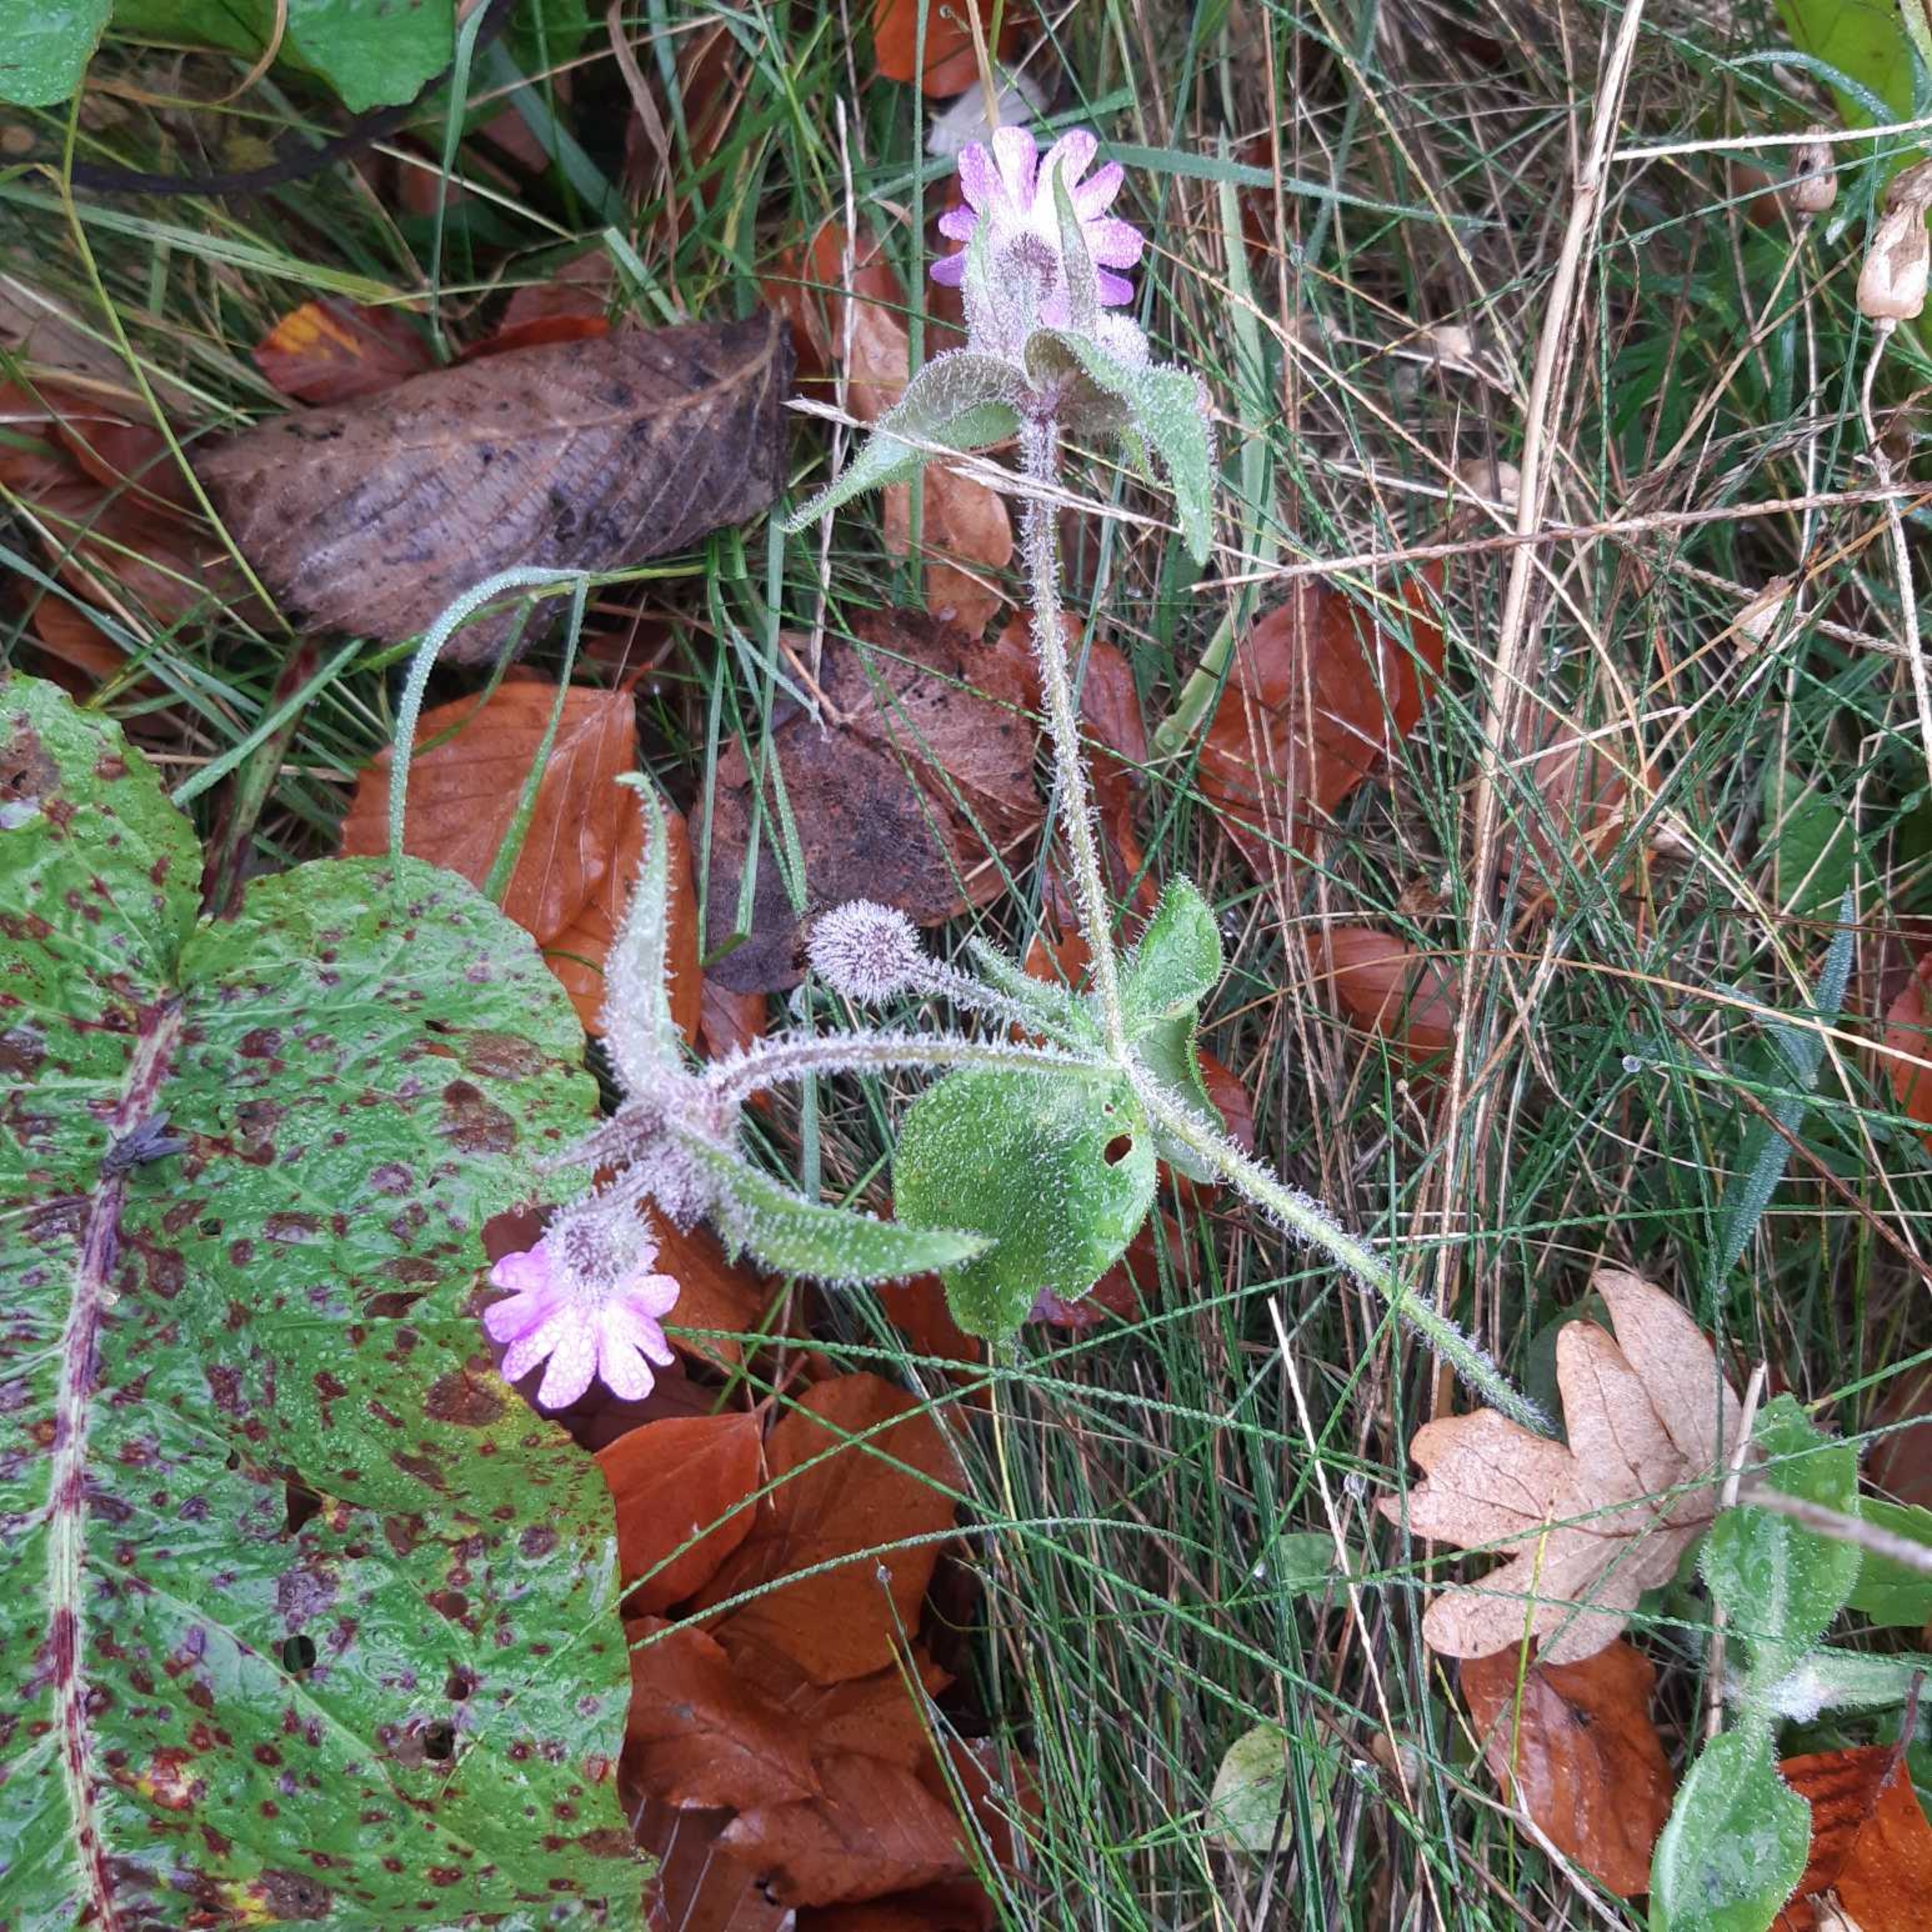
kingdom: Plantae
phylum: Tracheophyta
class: Magnoliopsida
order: Caryophyllales
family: Caryophyllaceae
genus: Silene
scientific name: Silene dioica
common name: Dagpragtstjerne
